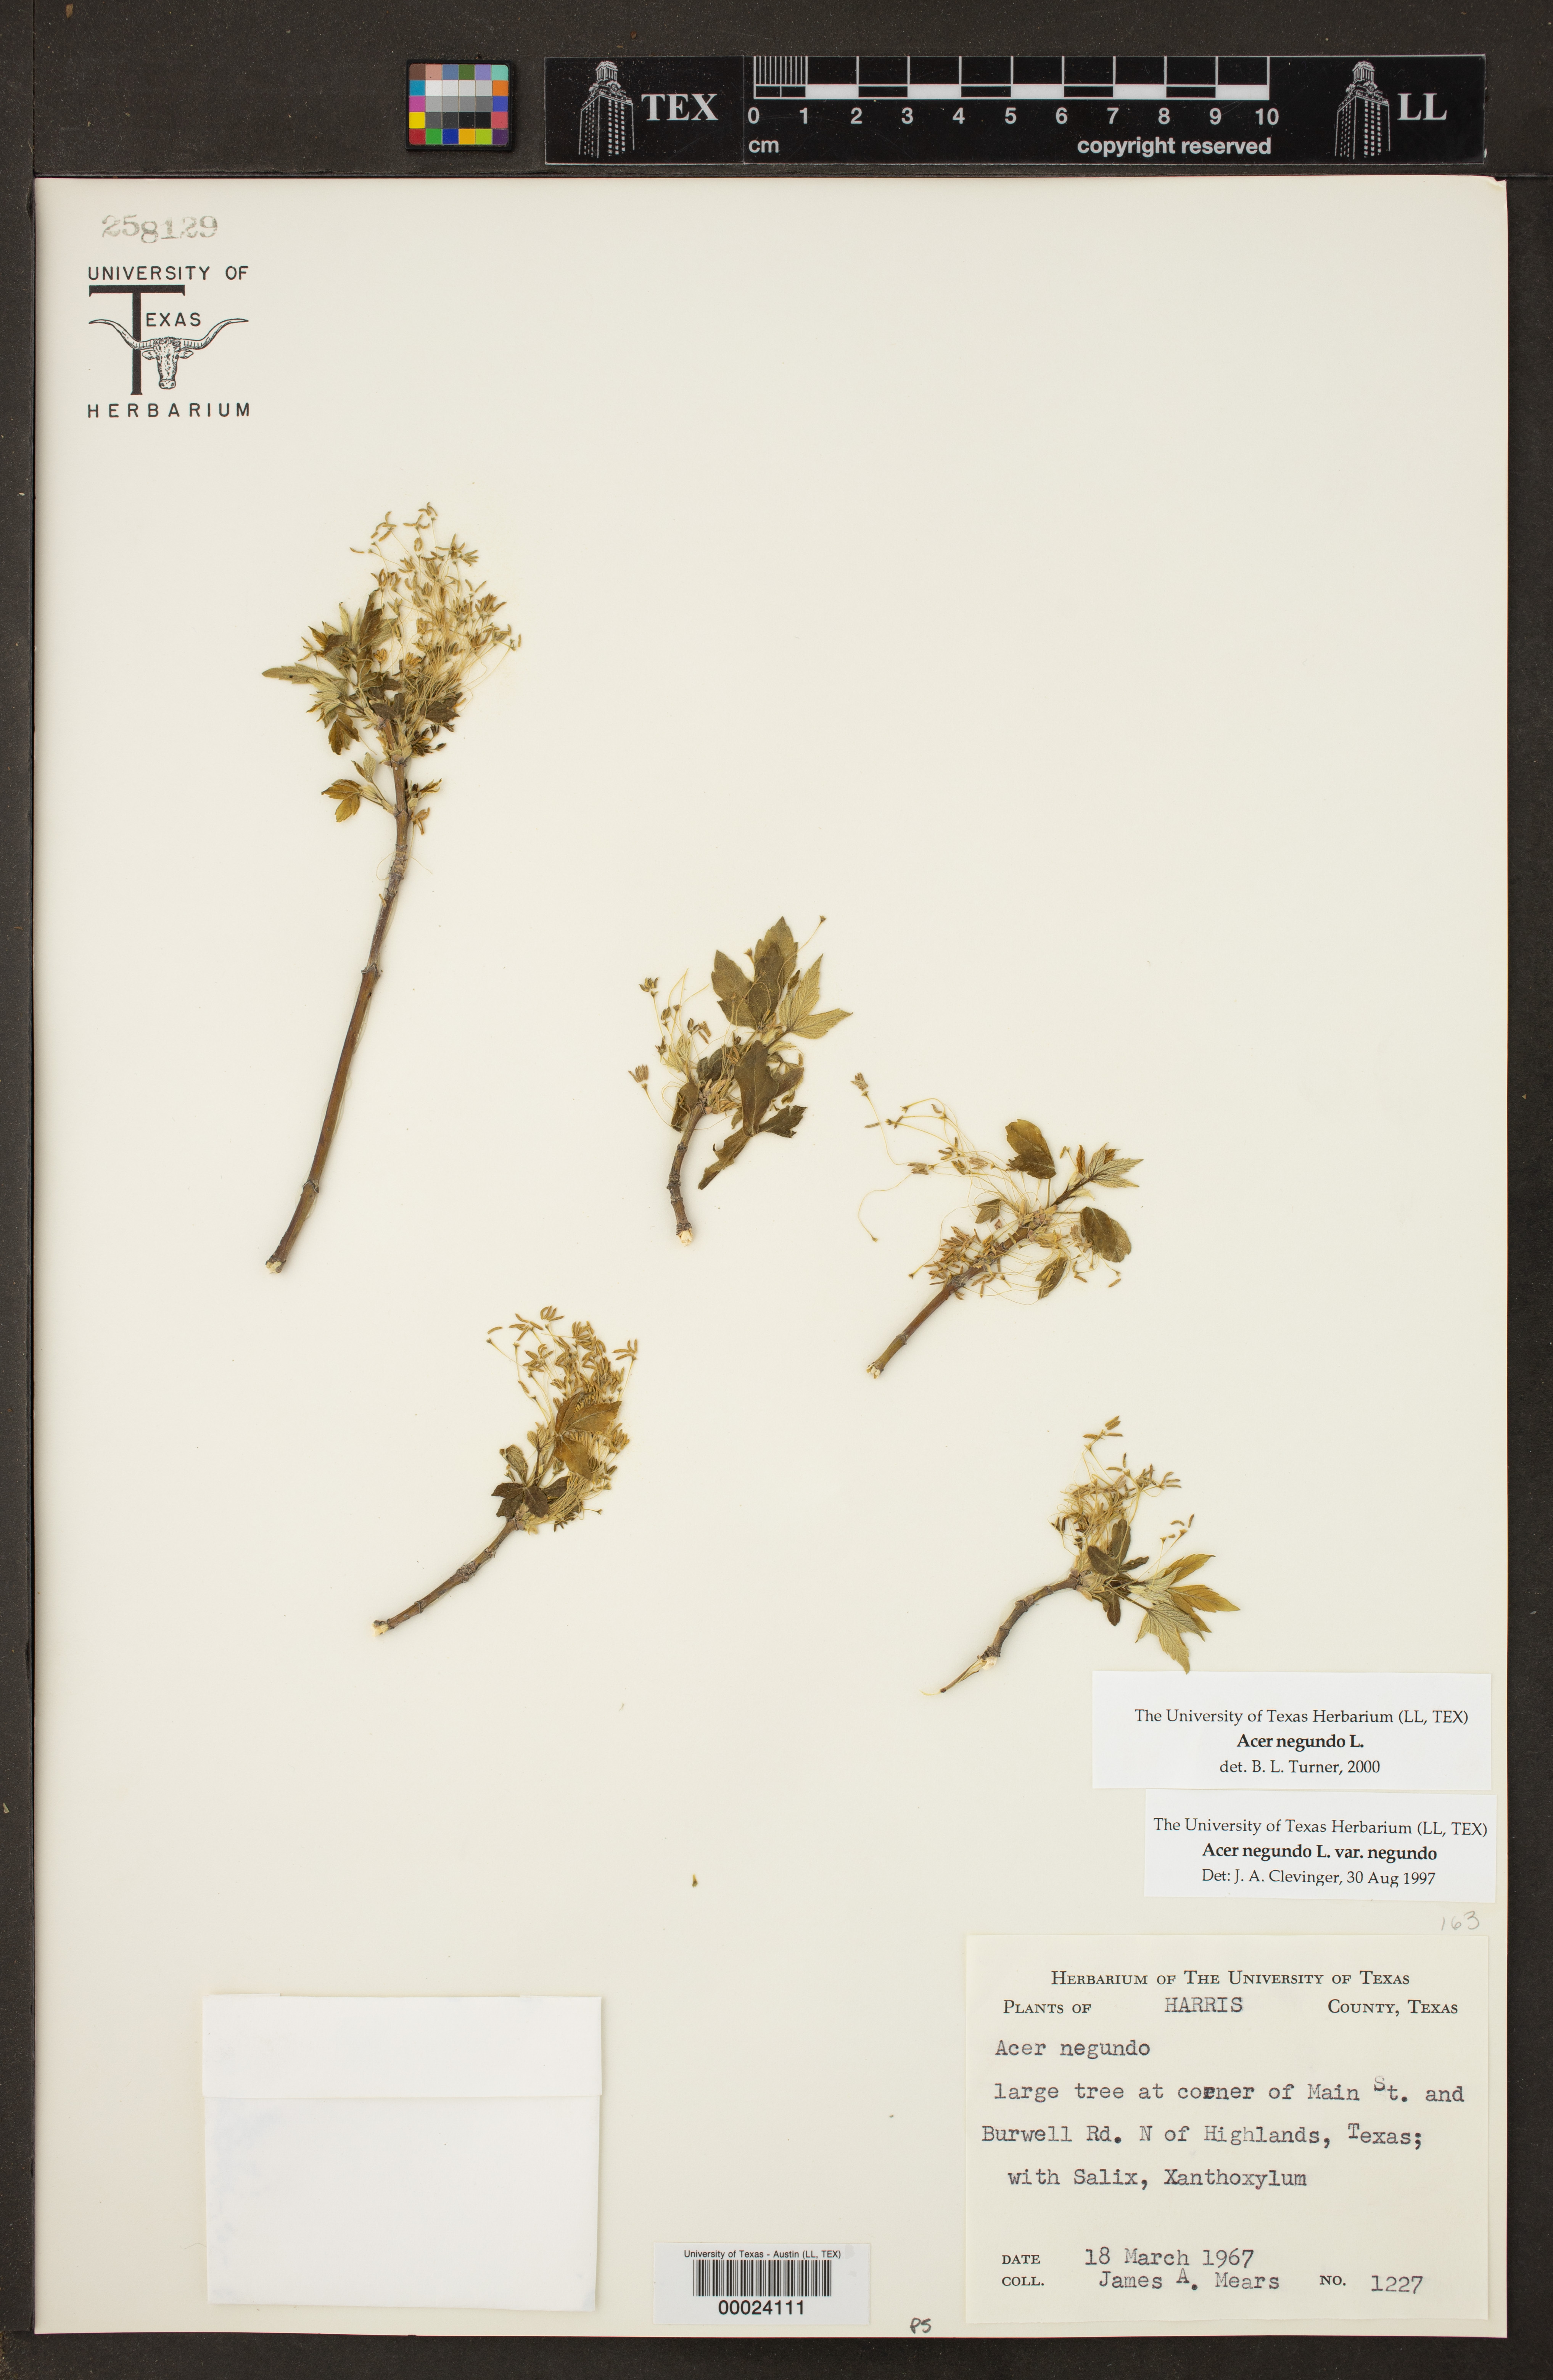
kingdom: Plantae
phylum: Tracheophyta
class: Magnoliopsida
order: Sapindales
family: Sapindaceae
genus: Acer
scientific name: Acer negundo
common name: Ashleaf maple
